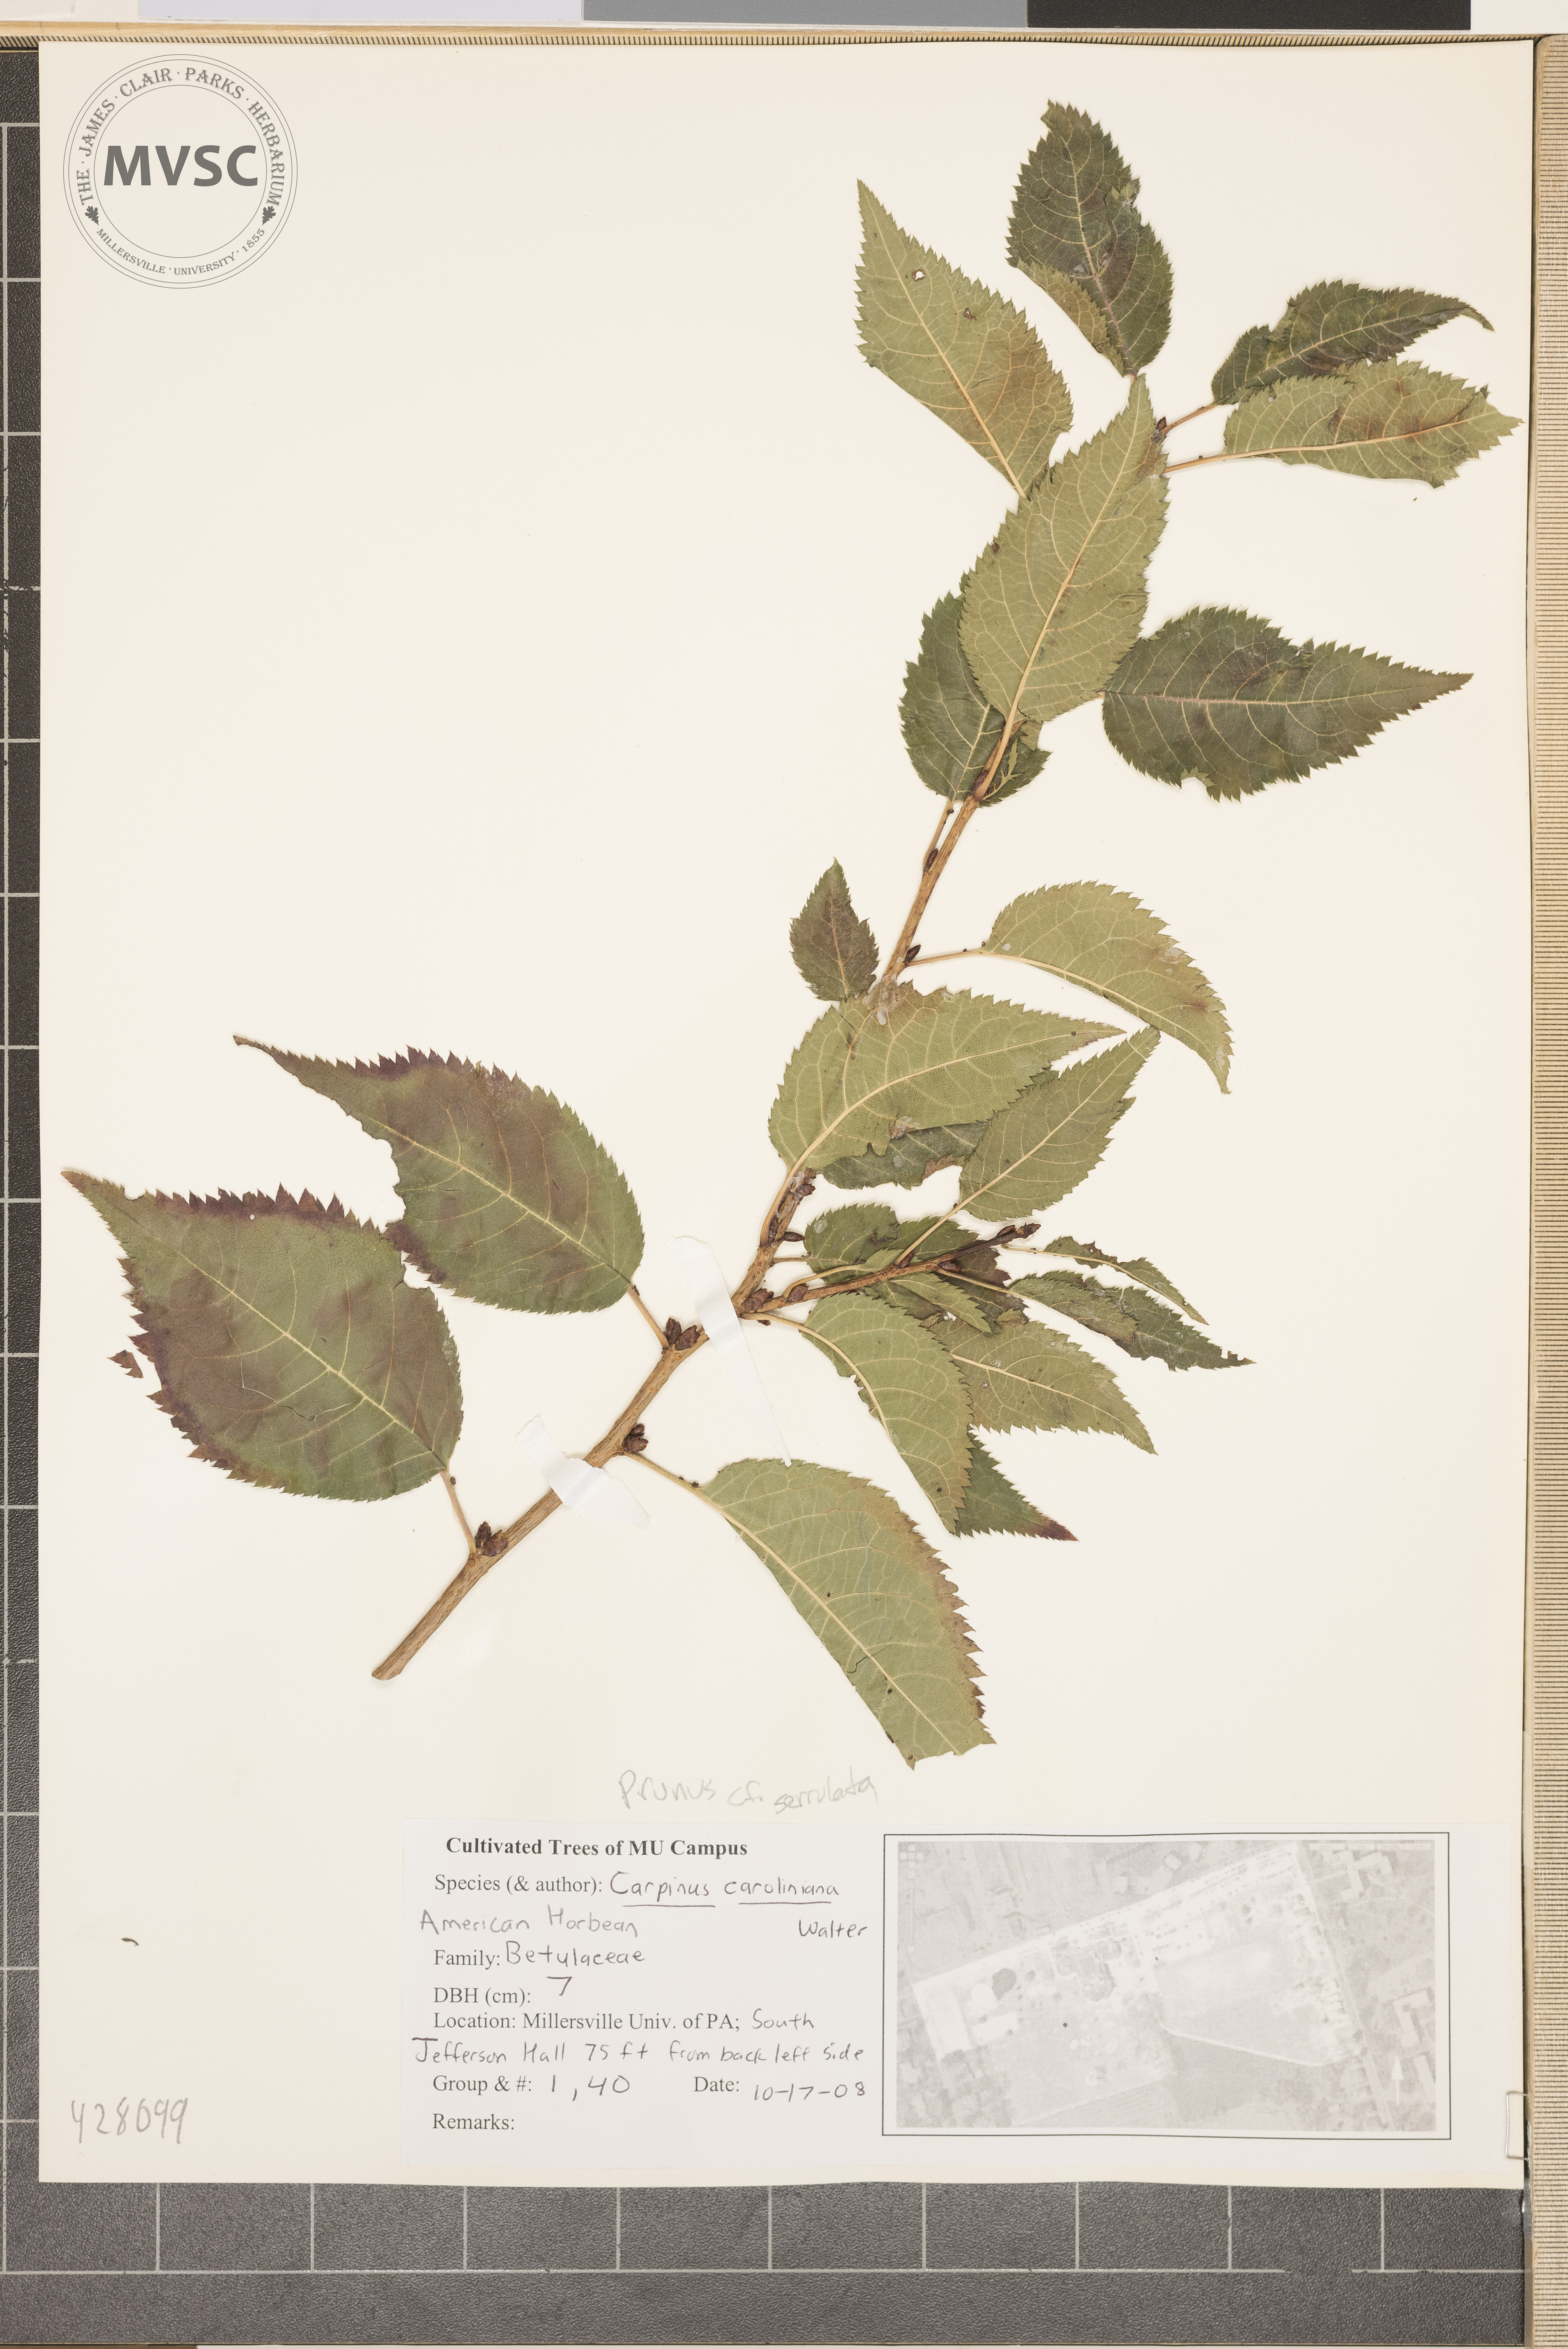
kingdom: Plantae
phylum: Tracheophyta
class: Magnoliopsida
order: Rosales
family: Rosaceae
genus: Prunus
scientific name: Prunus caroliniana
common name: Carolina laurel cherry
